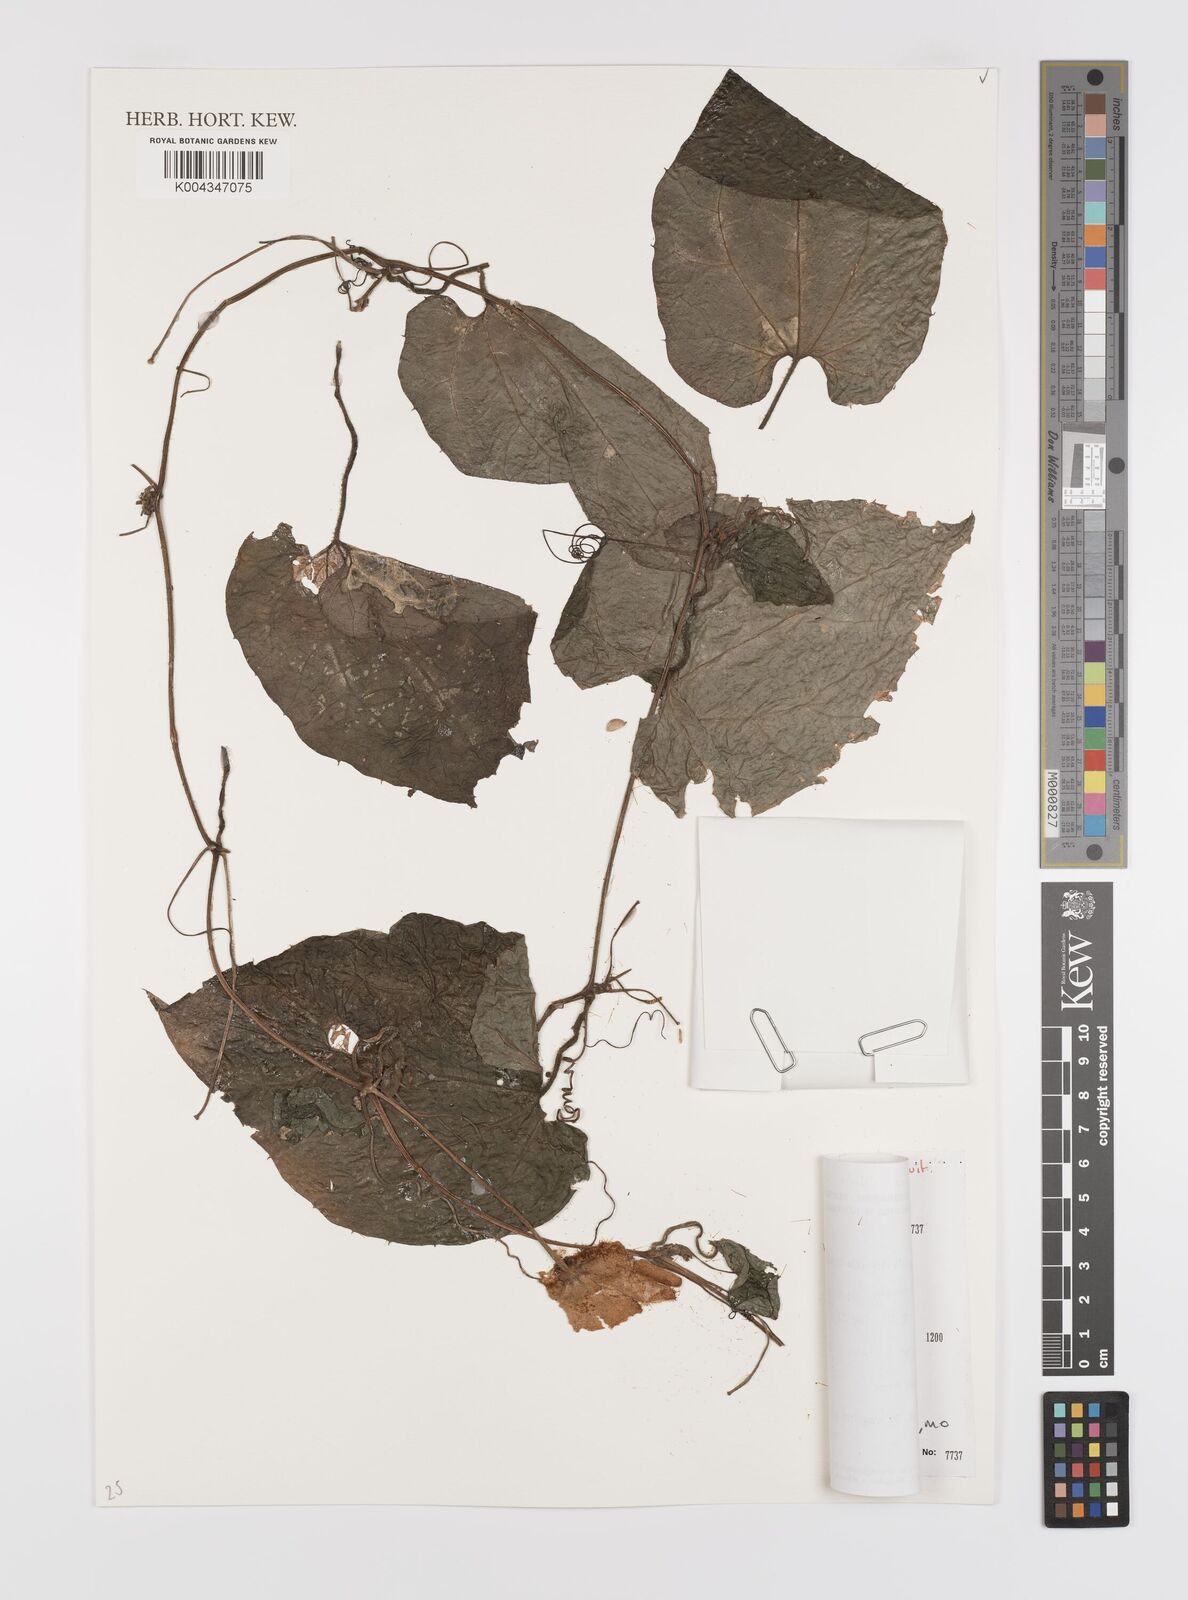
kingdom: Plantae
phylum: Tracheophyta
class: Magnoliopsida
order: Cucurbitales
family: Cucurbitaceae
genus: Raphidiocystis
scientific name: Raphidiocystis chrysocoma
